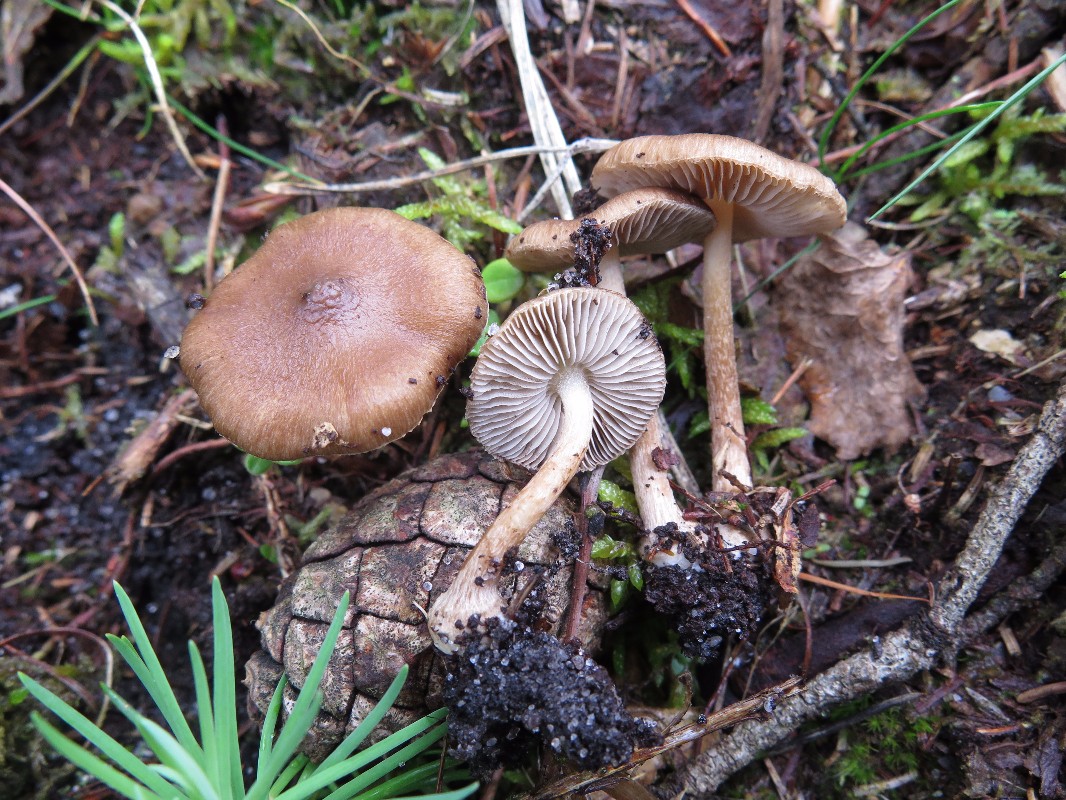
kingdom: Fungi
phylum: Basidiomycota
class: Agaricomycetes
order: Agaricales
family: Inocybaceae
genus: Inocybe
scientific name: Inocybe napipes
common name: roeknoldet trævlhat
